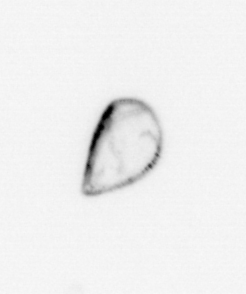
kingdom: Chromista
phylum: Ochrophyta
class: Bacillariophyceae
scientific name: Bacillariophyceae
